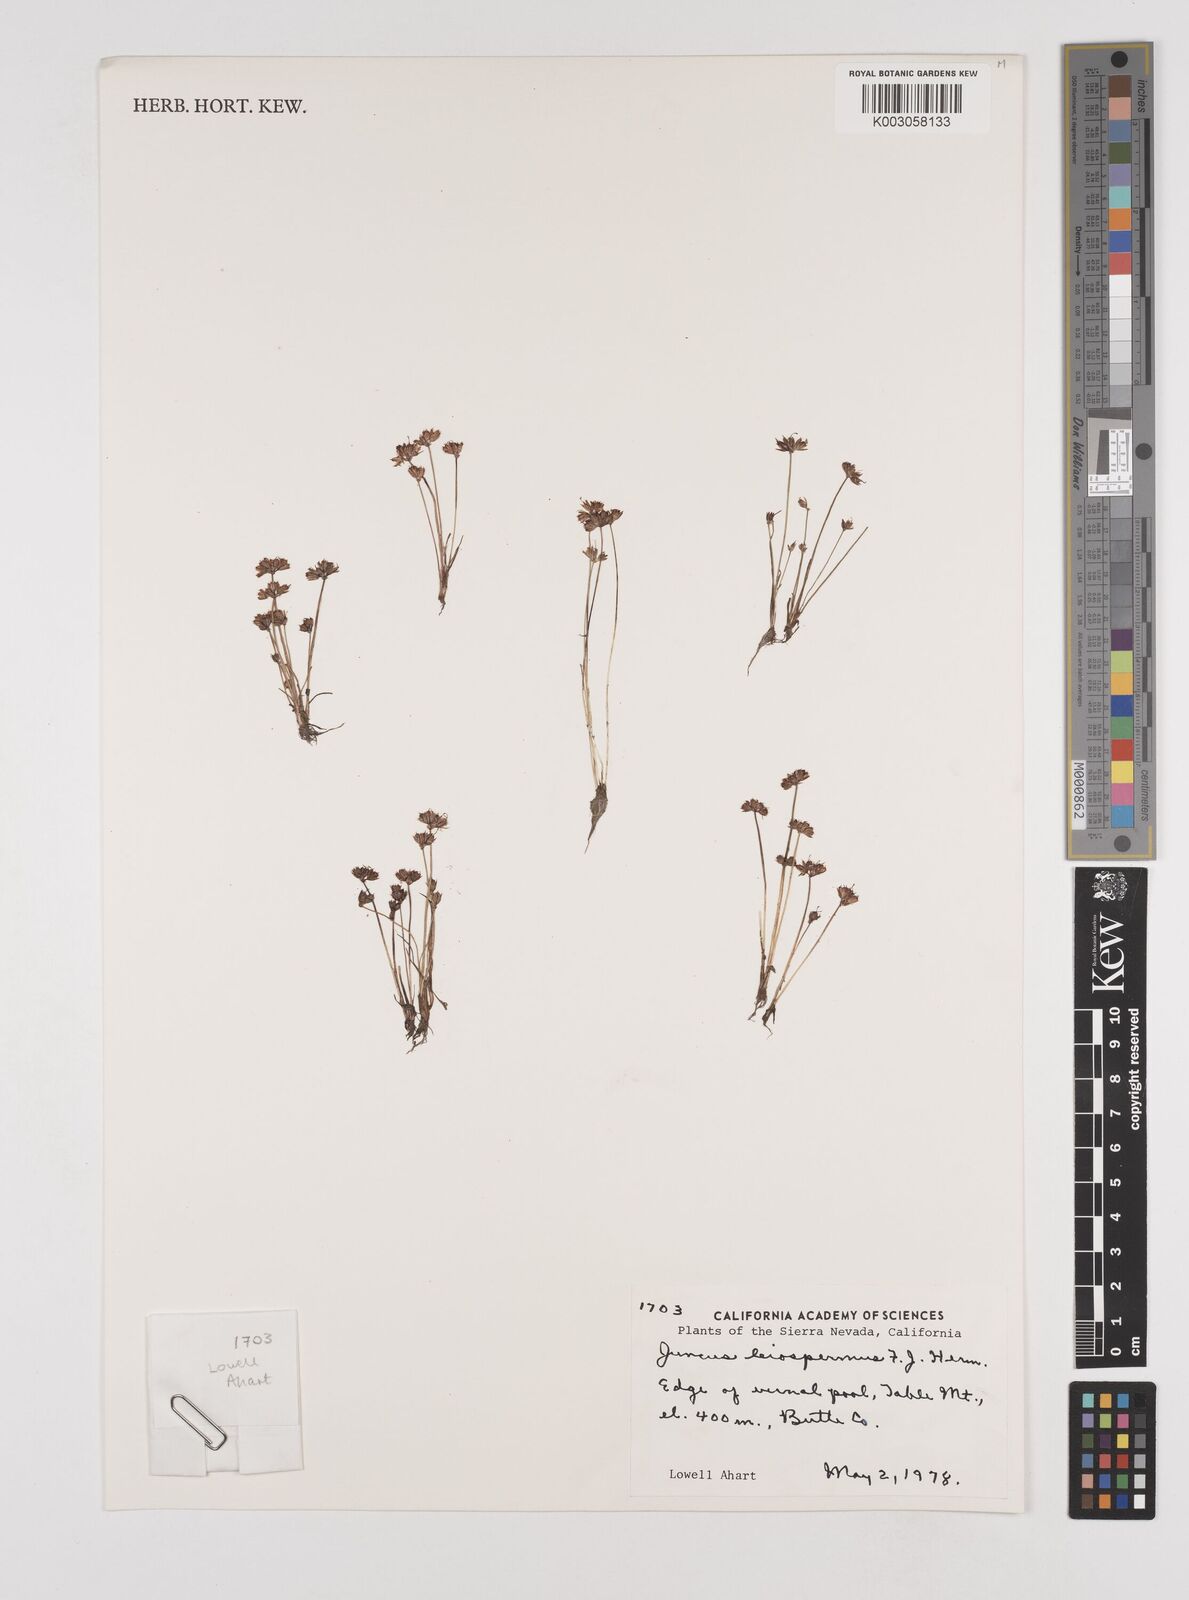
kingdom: Plantae
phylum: Tracheophyta
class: Liliopsida
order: Poales
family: Juncaceae
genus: Juncus
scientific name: Juncus leiospermus
